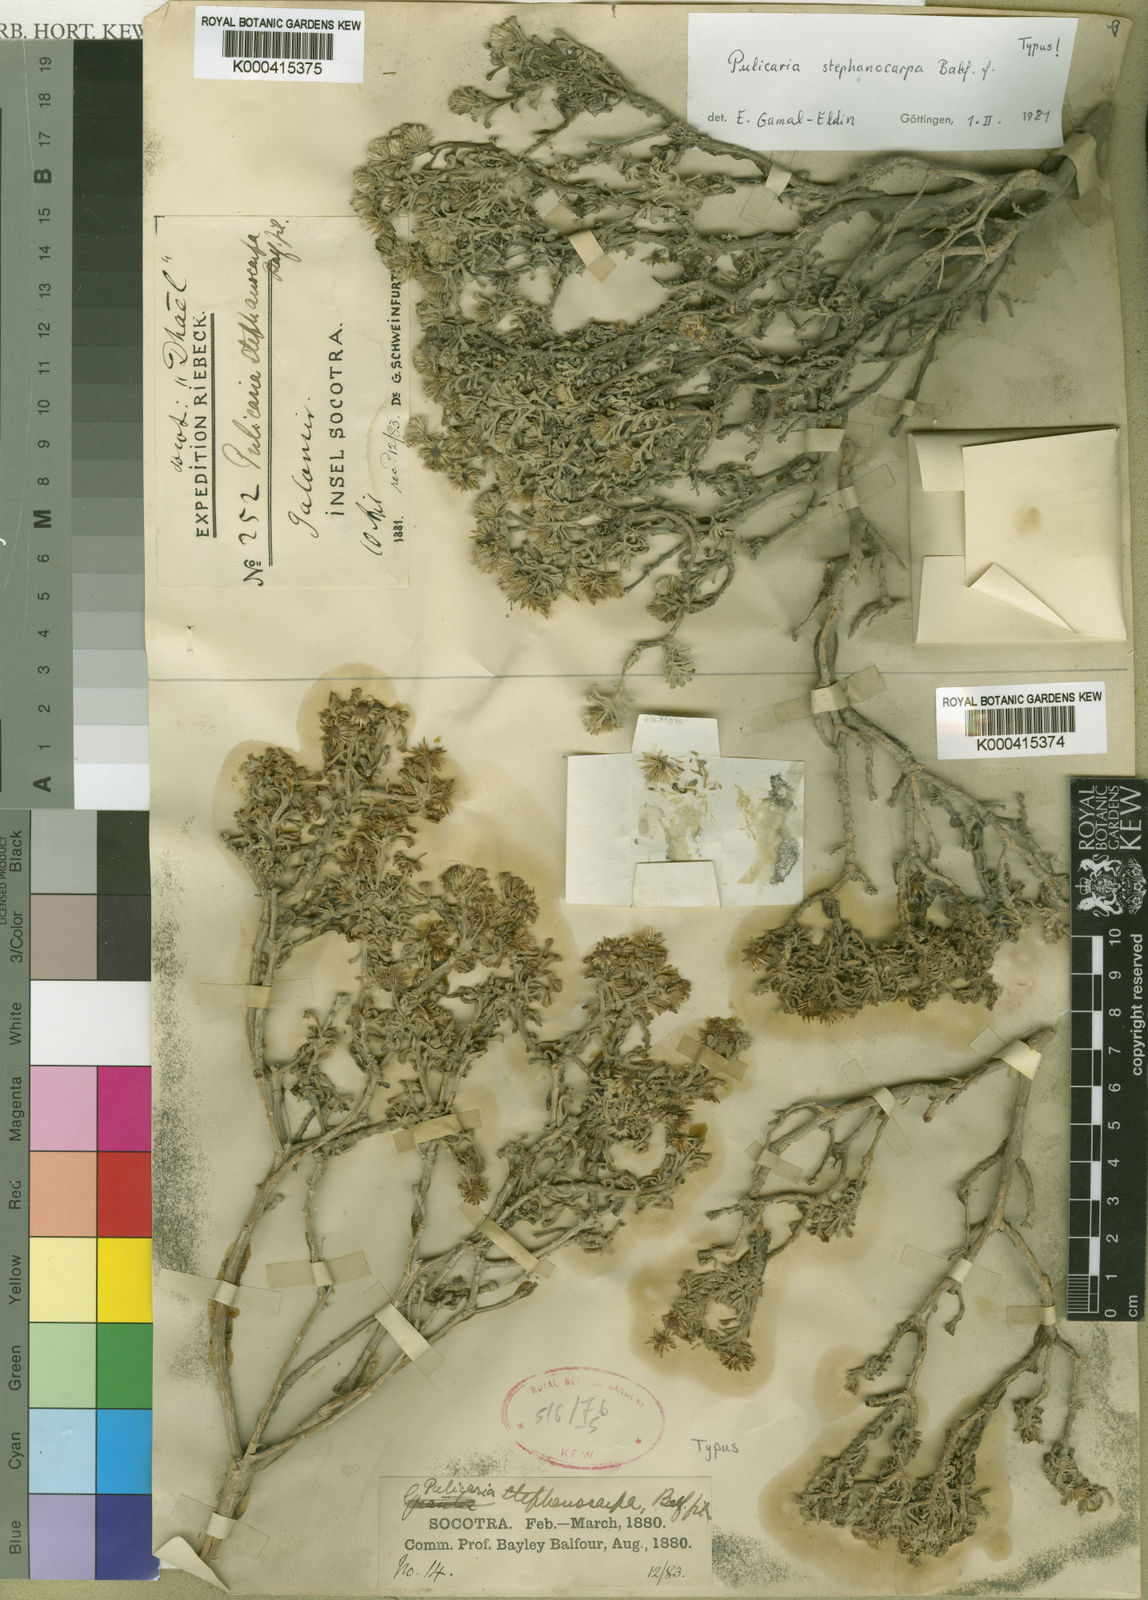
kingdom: Plantae
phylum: Tracheophyta
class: Magnoliopsida
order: Asterales
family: Asteraceae
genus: Pulicaria
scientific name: Pulicaria stephanocarpa
